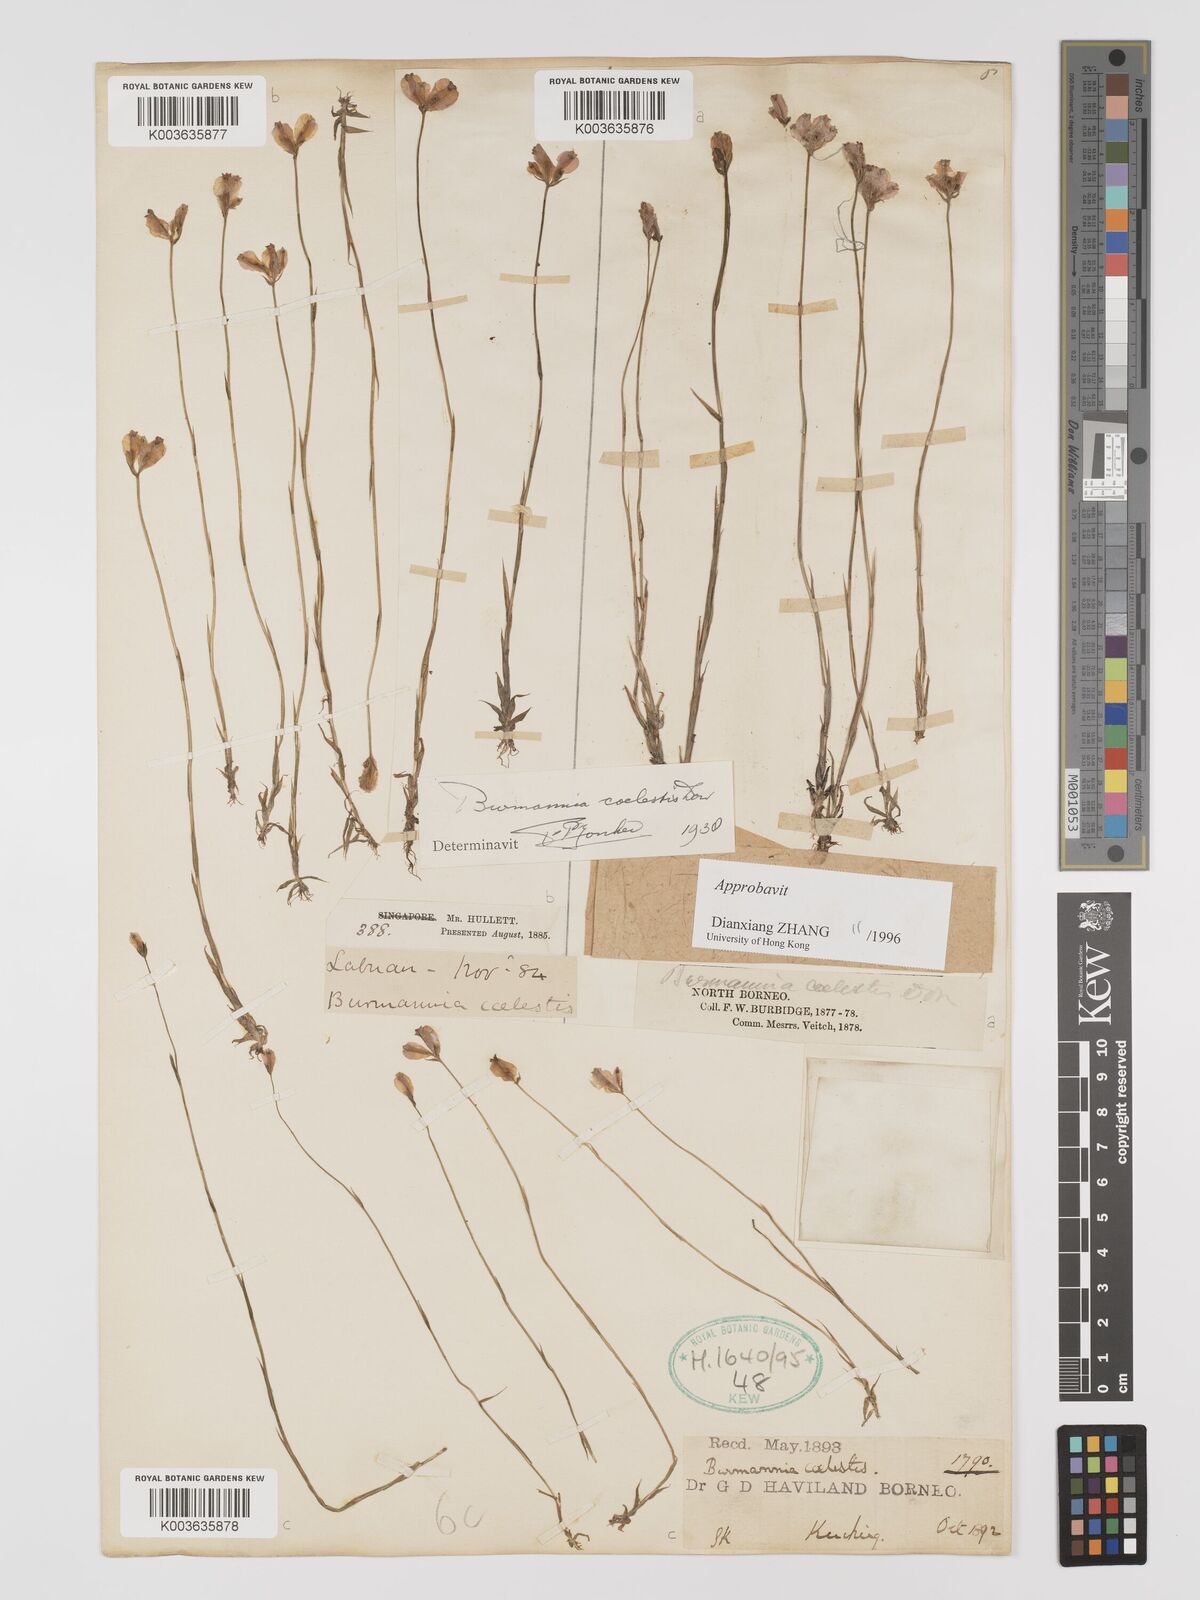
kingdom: Plantae
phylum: Tracheophyta
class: Liliopsida
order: Dioscoreales
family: Burmanniaceae
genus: Burmannia
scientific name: Burmannia coelestis
